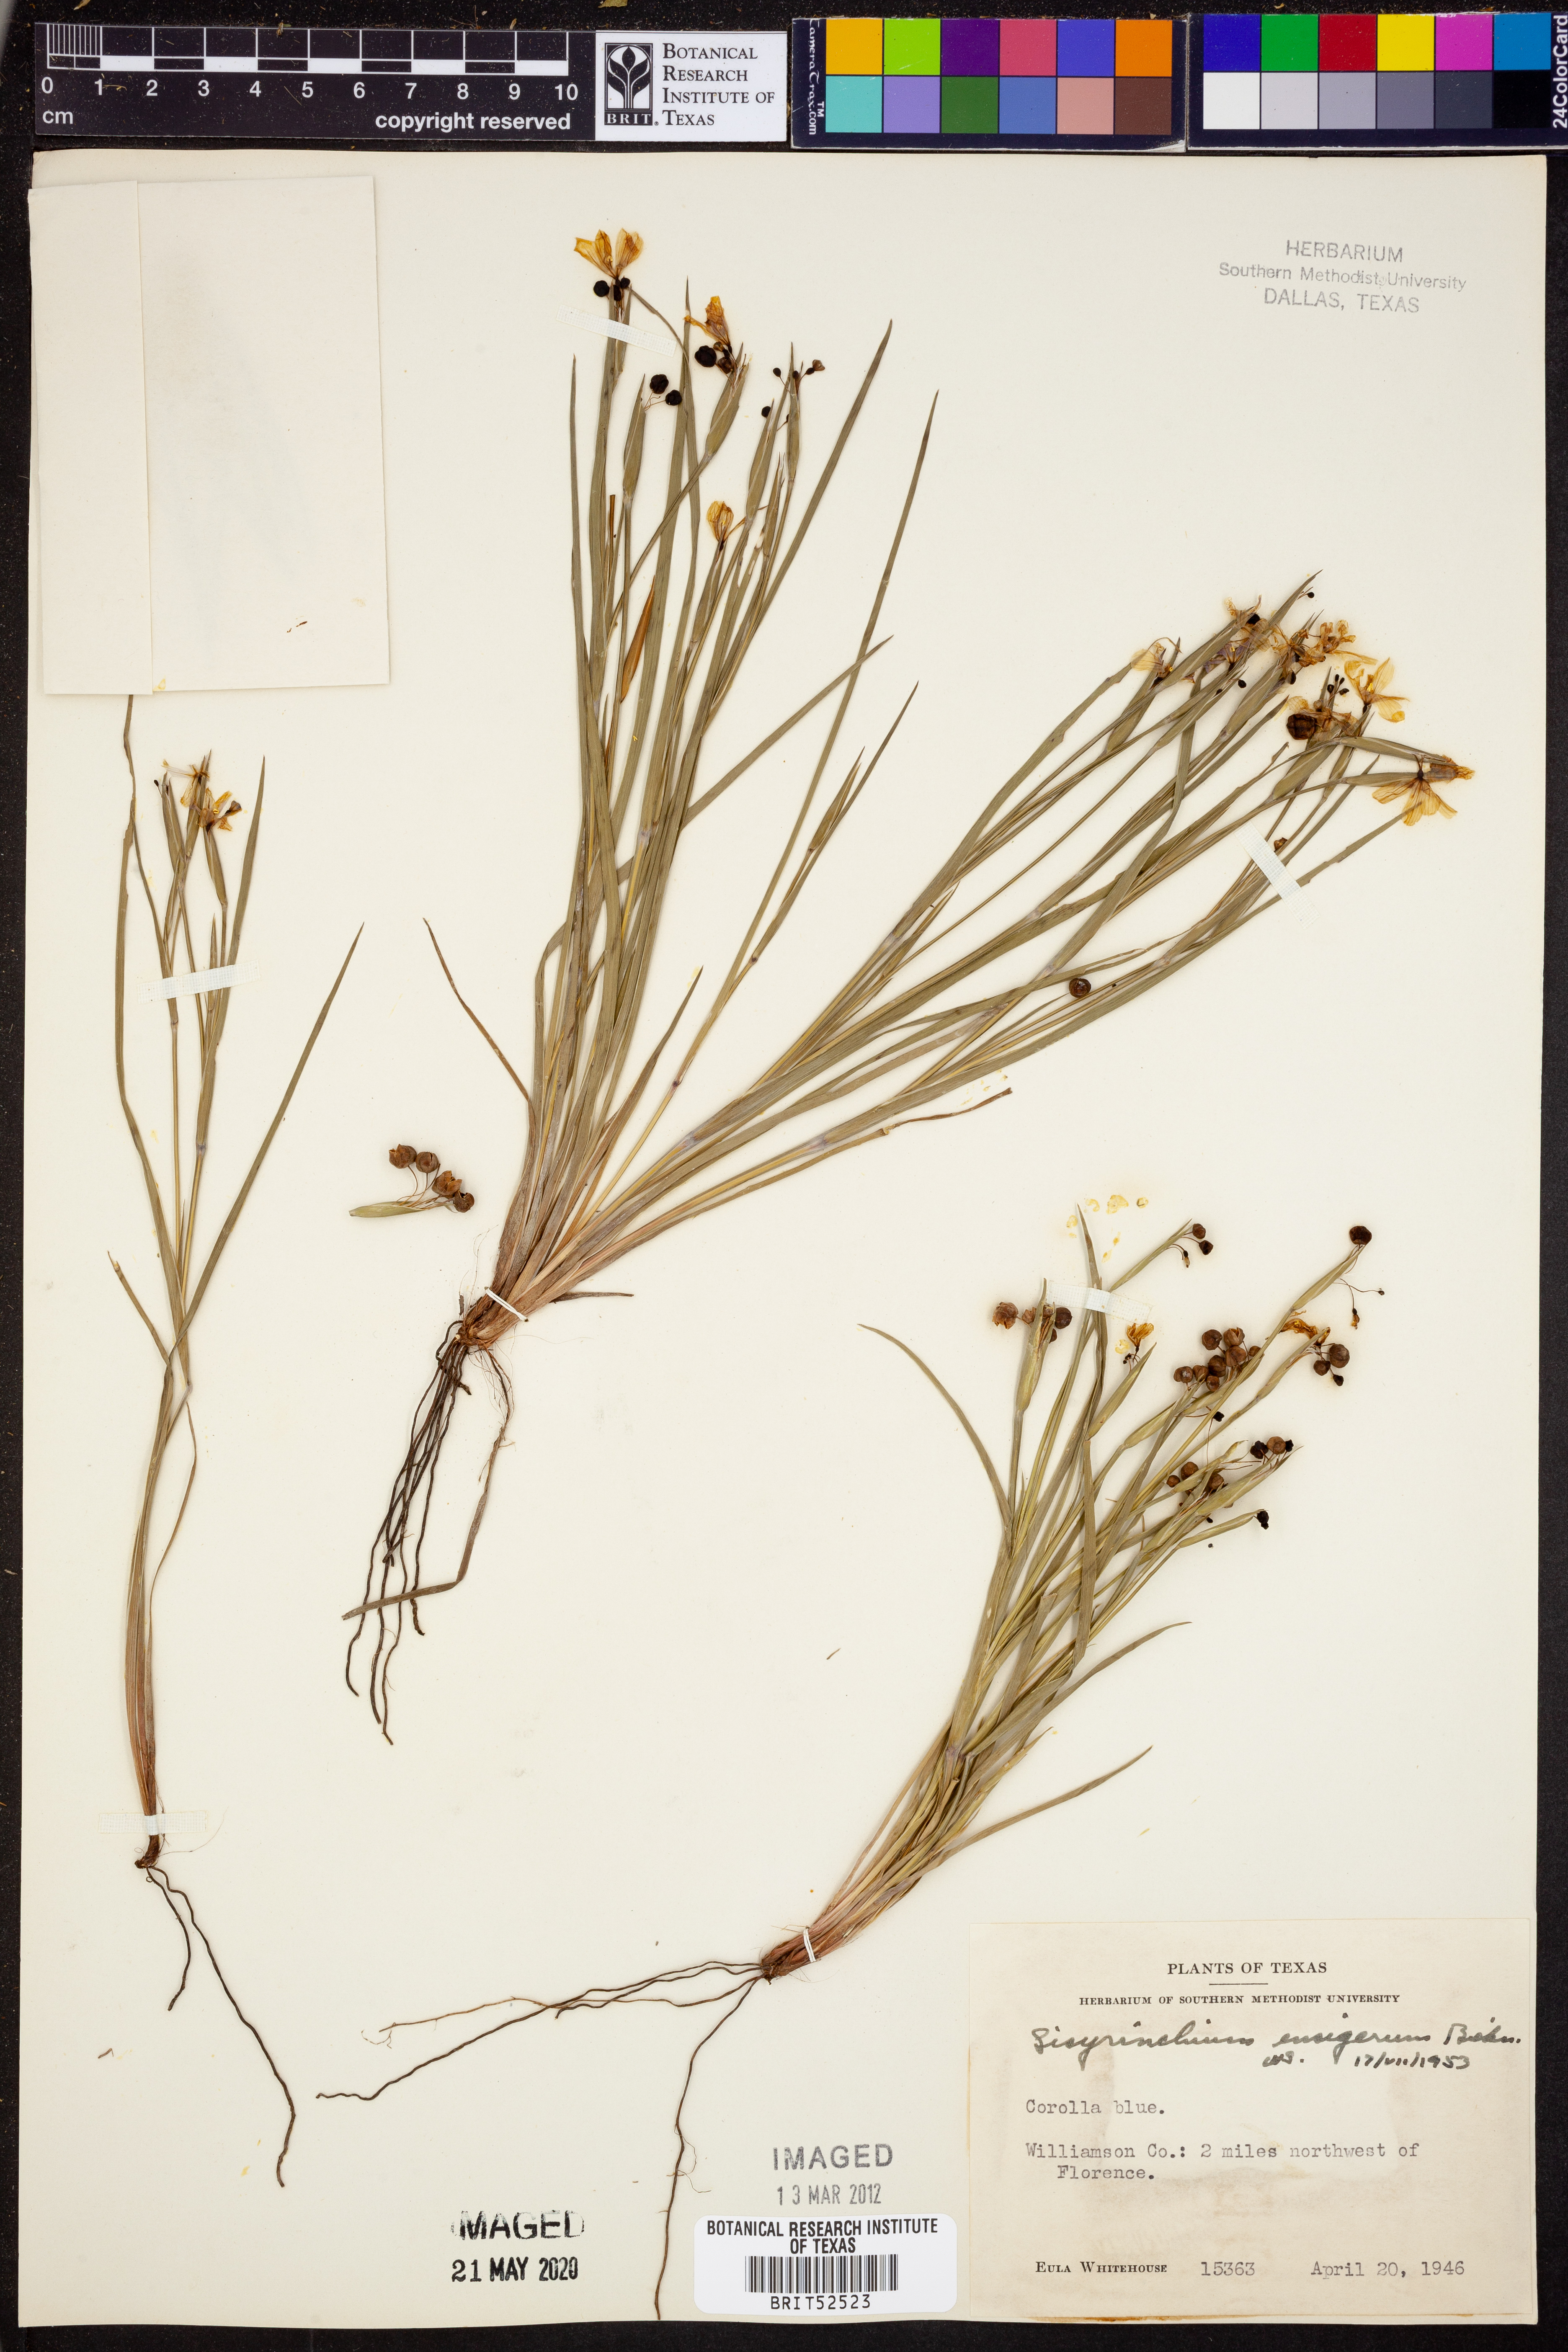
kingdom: Plantae
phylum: Tracheophyta
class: Liliopsida
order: Asparagales
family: Iridaceae
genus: Sisyrinchium
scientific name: Sisyrinchium ensigerum
